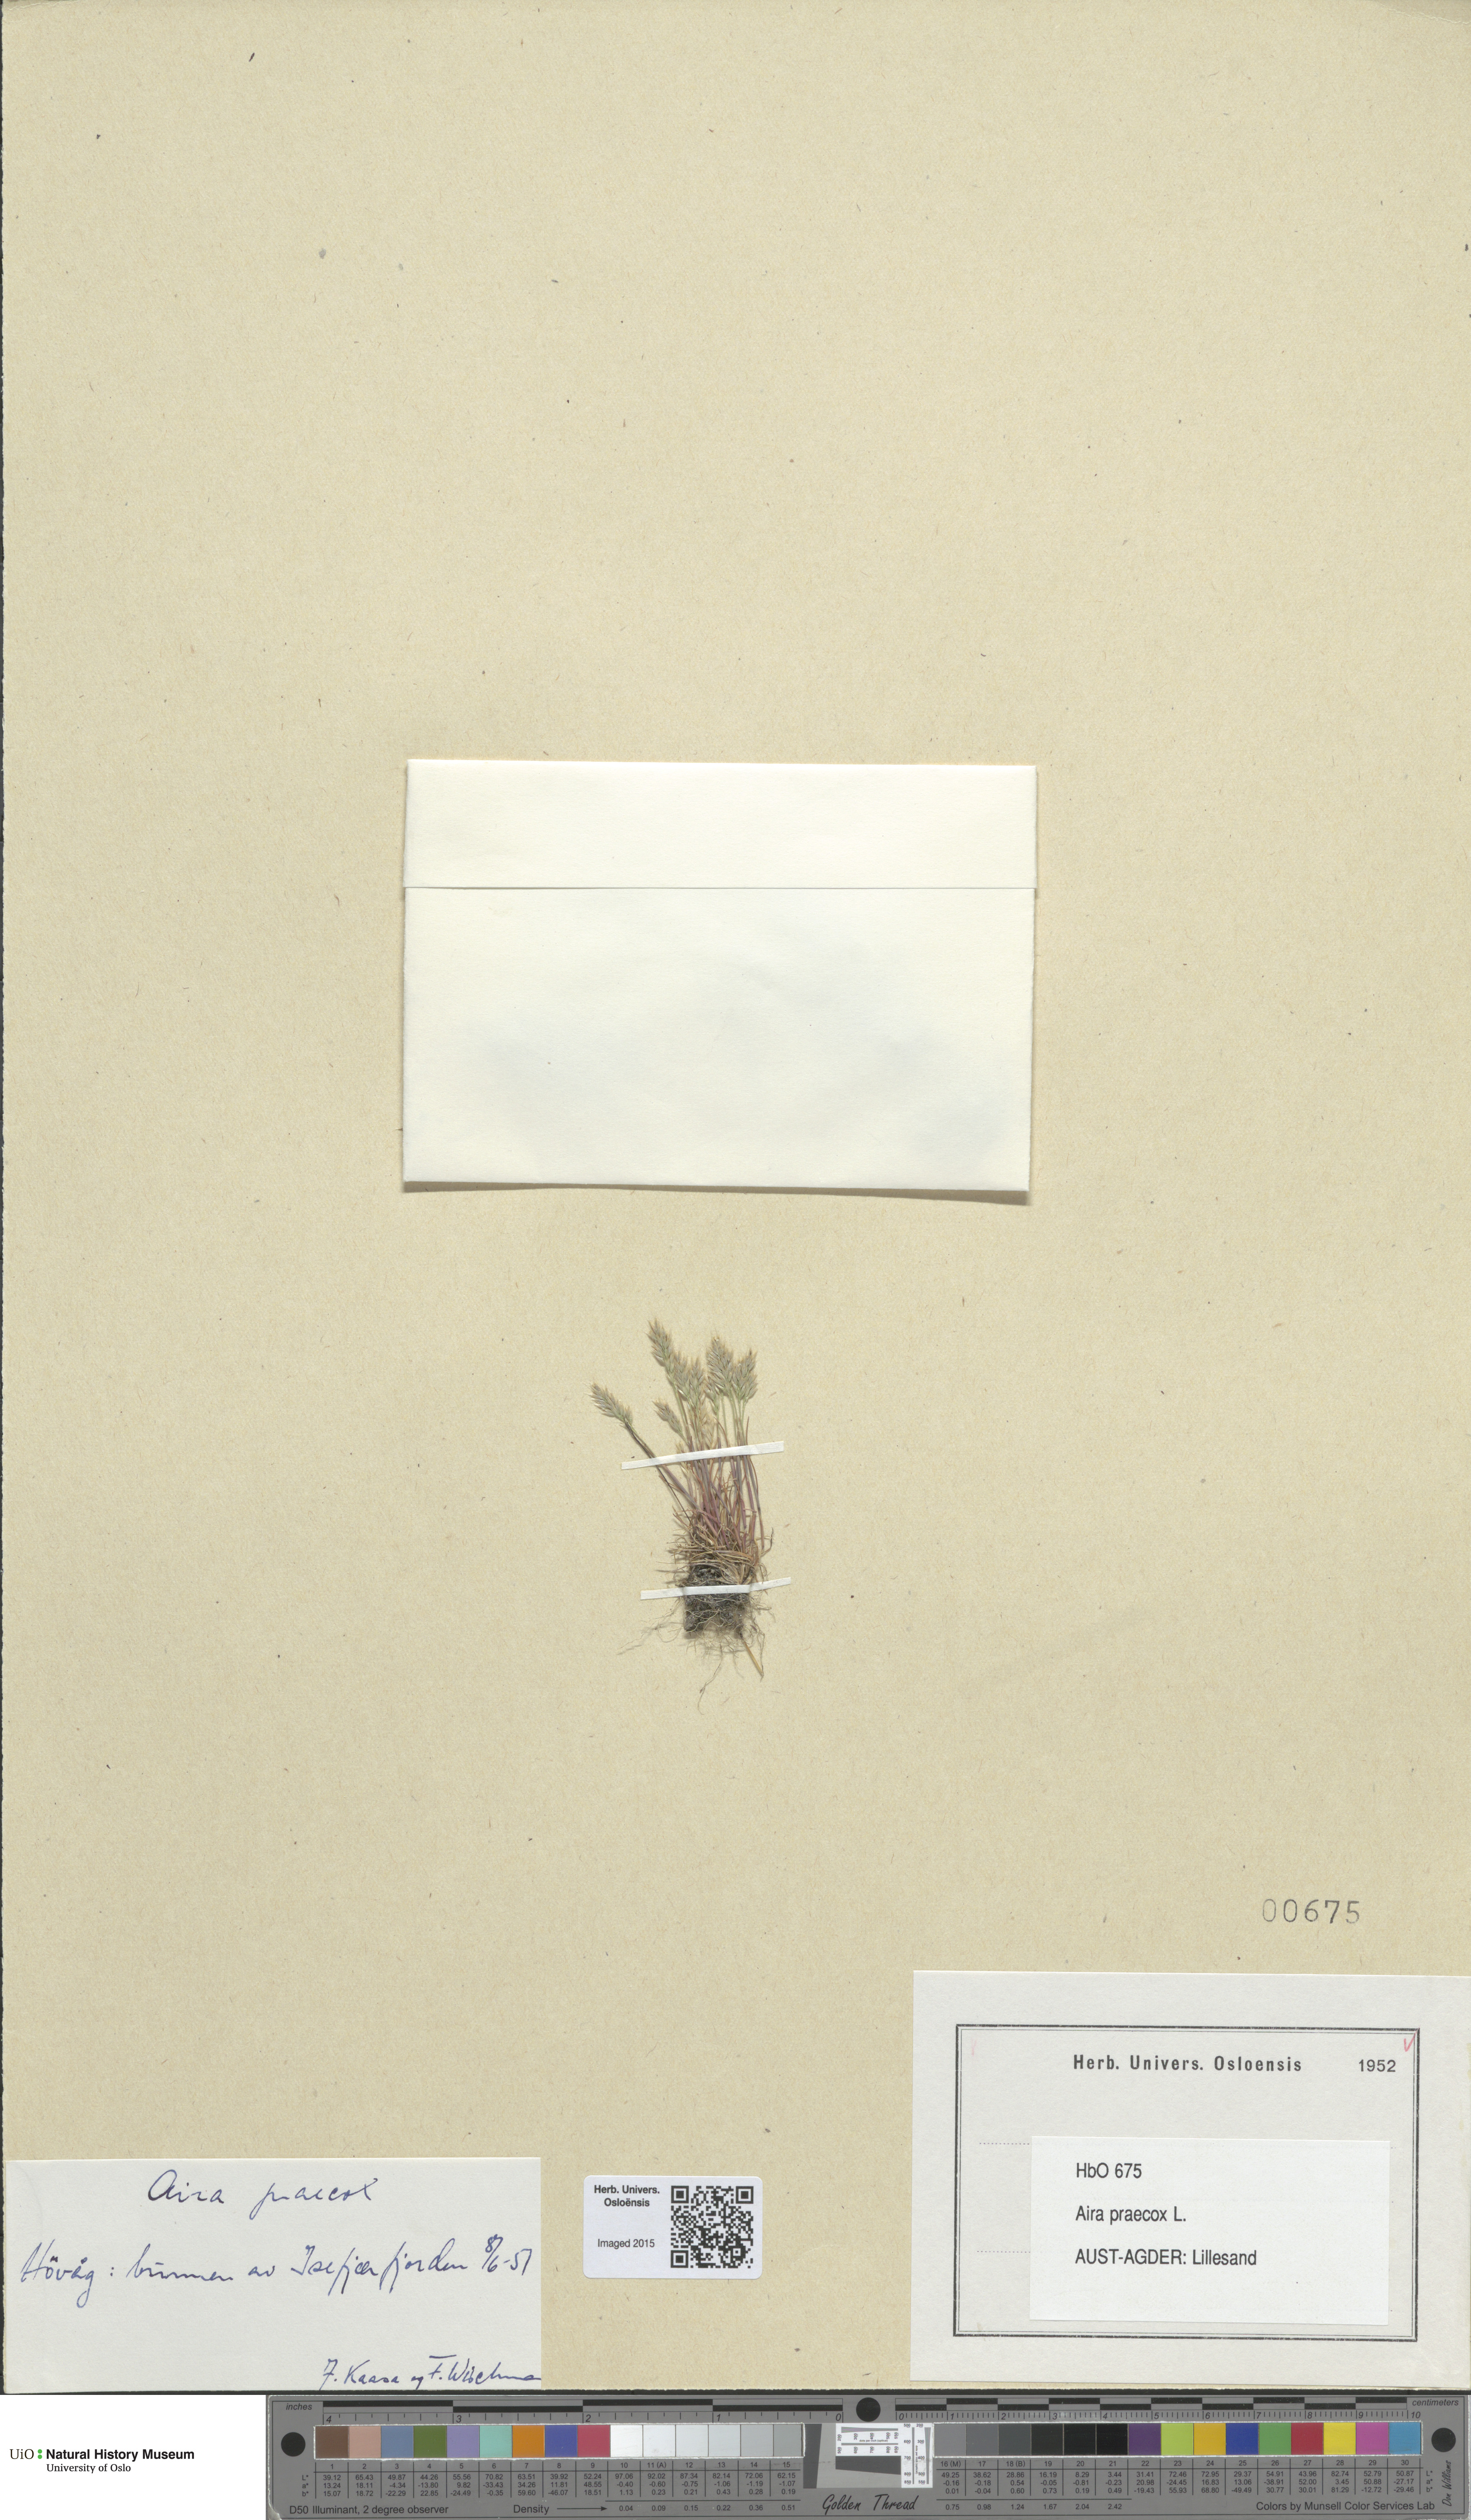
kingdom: Plantae
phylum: Tracheophyta
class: Liliopsida
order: Poales
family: Poaceae
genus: Aira
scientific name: Aira praecox
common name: Early hair-grass
